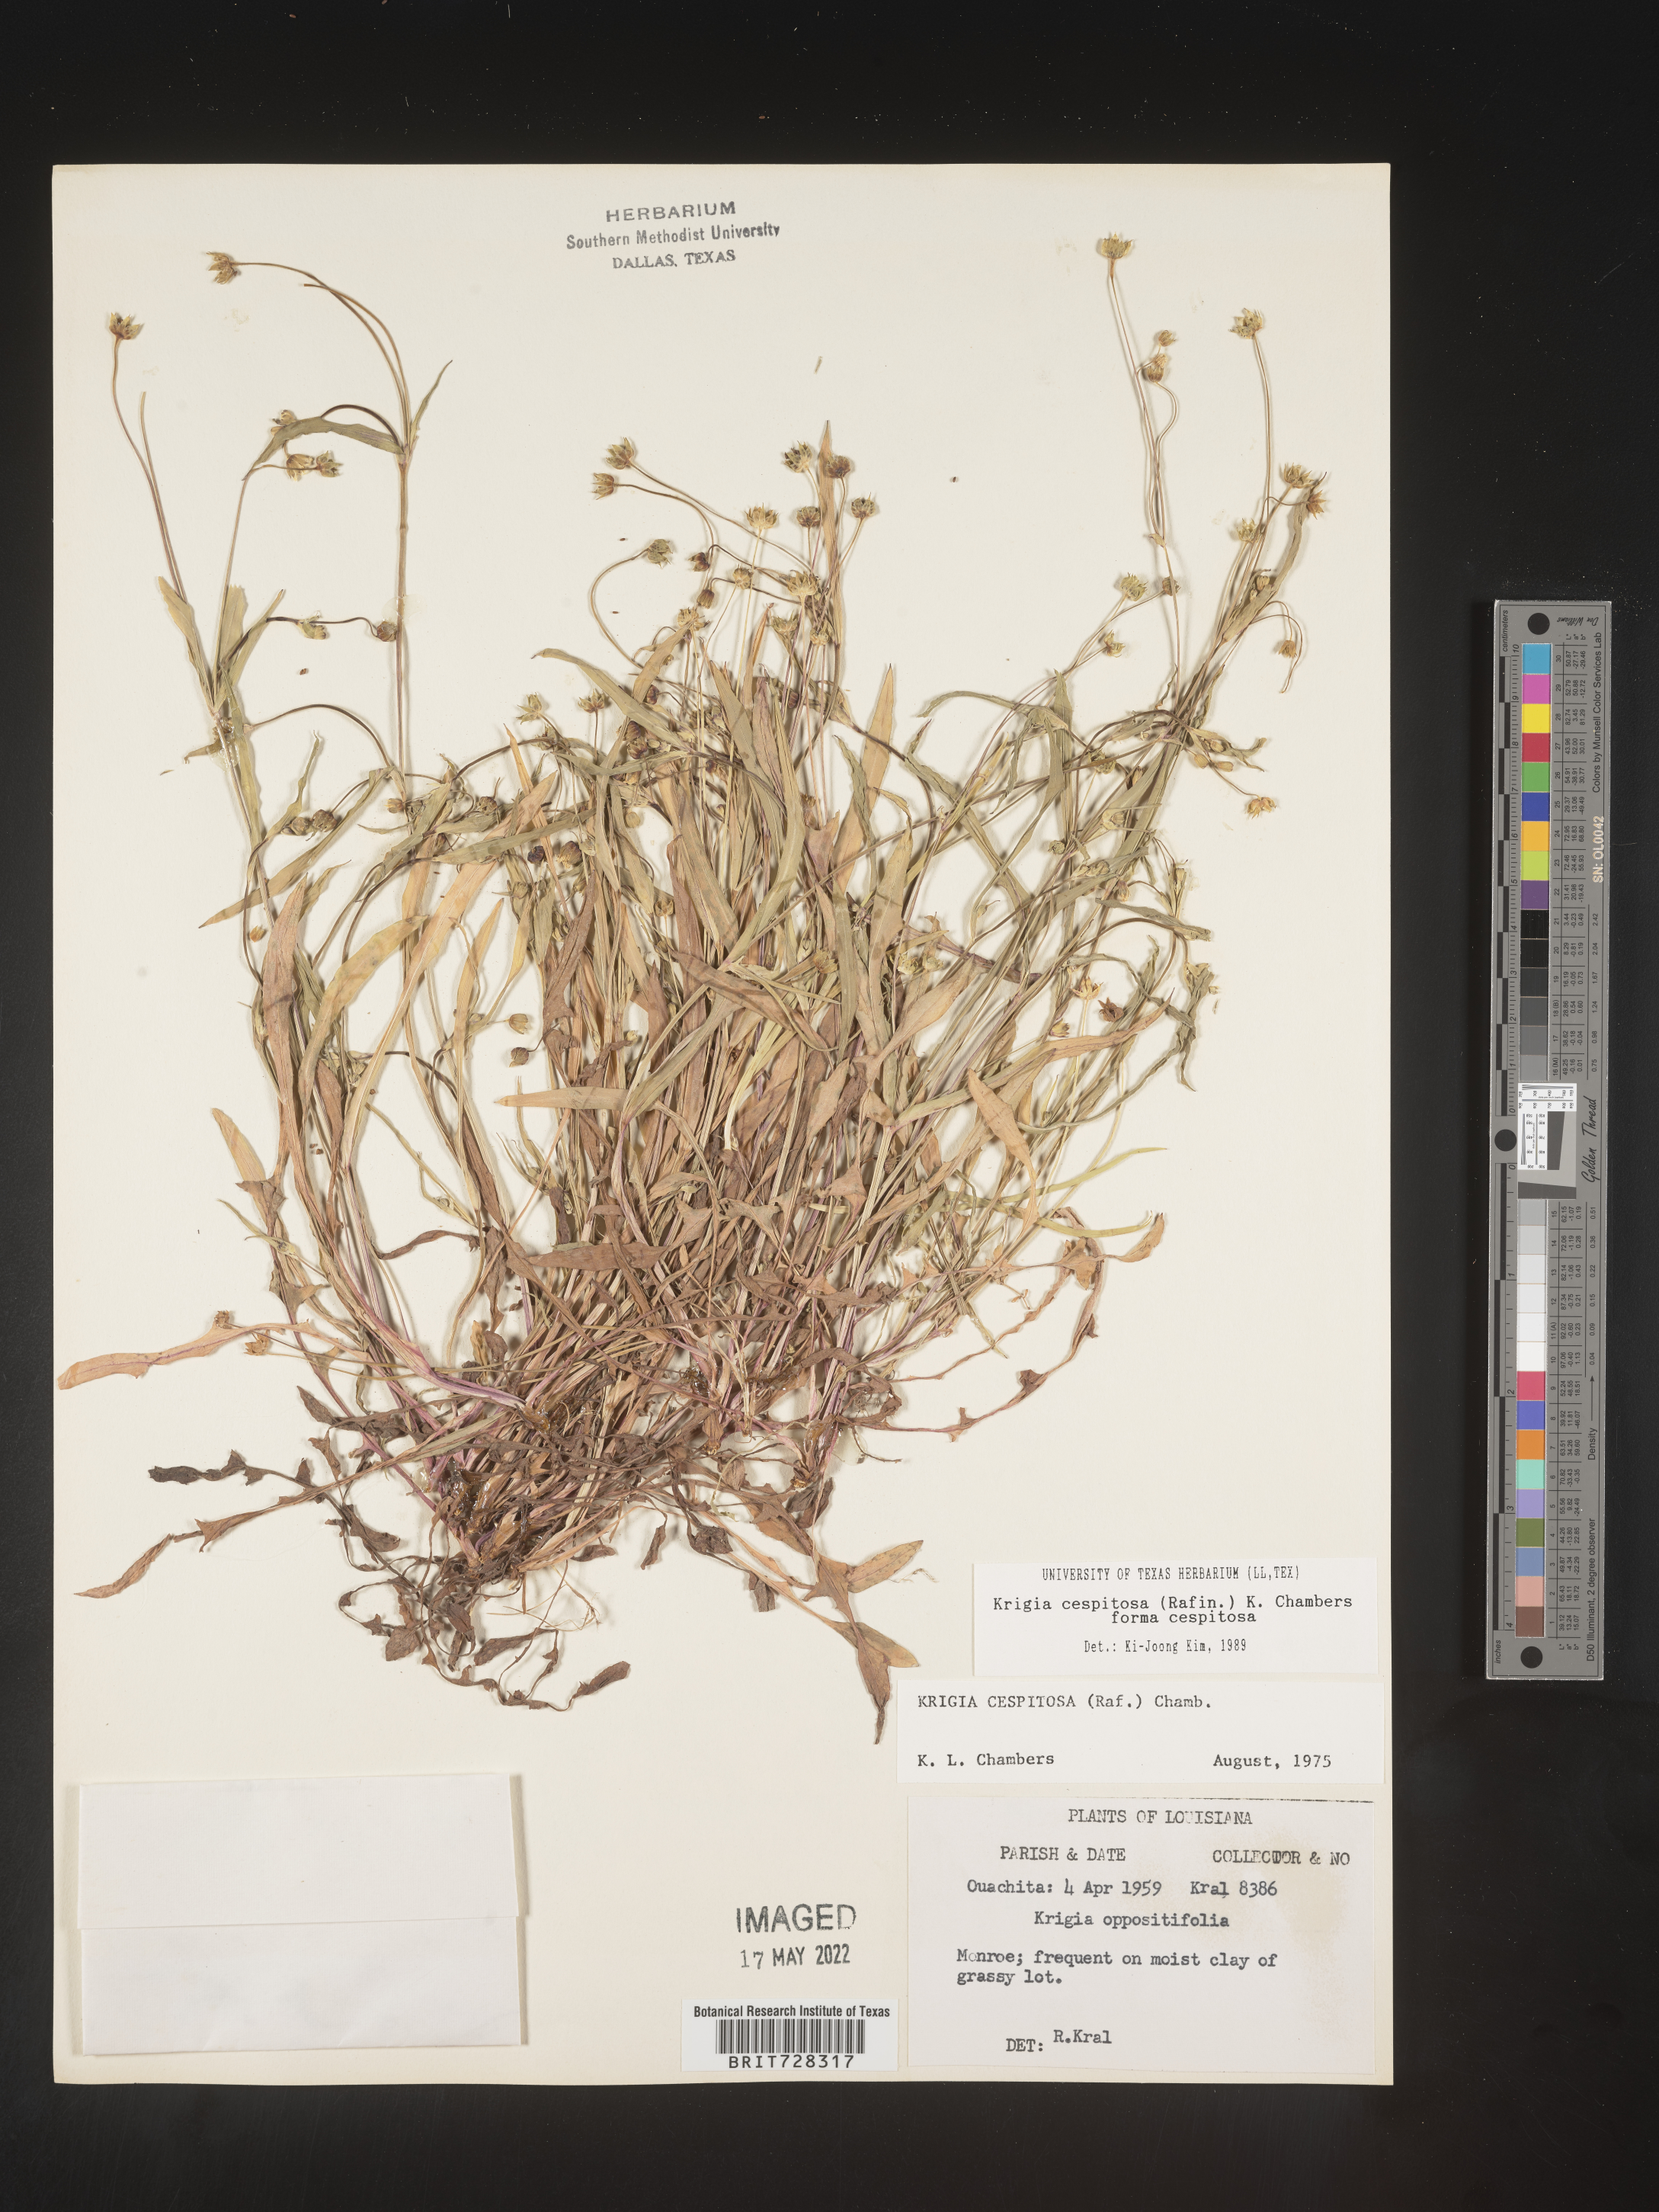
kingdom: Plantae
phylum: Tracheophyta
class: Magnoliopsida
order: Asterales
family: Asteraceae
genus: Krigia
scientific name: Krigia caespitosa
